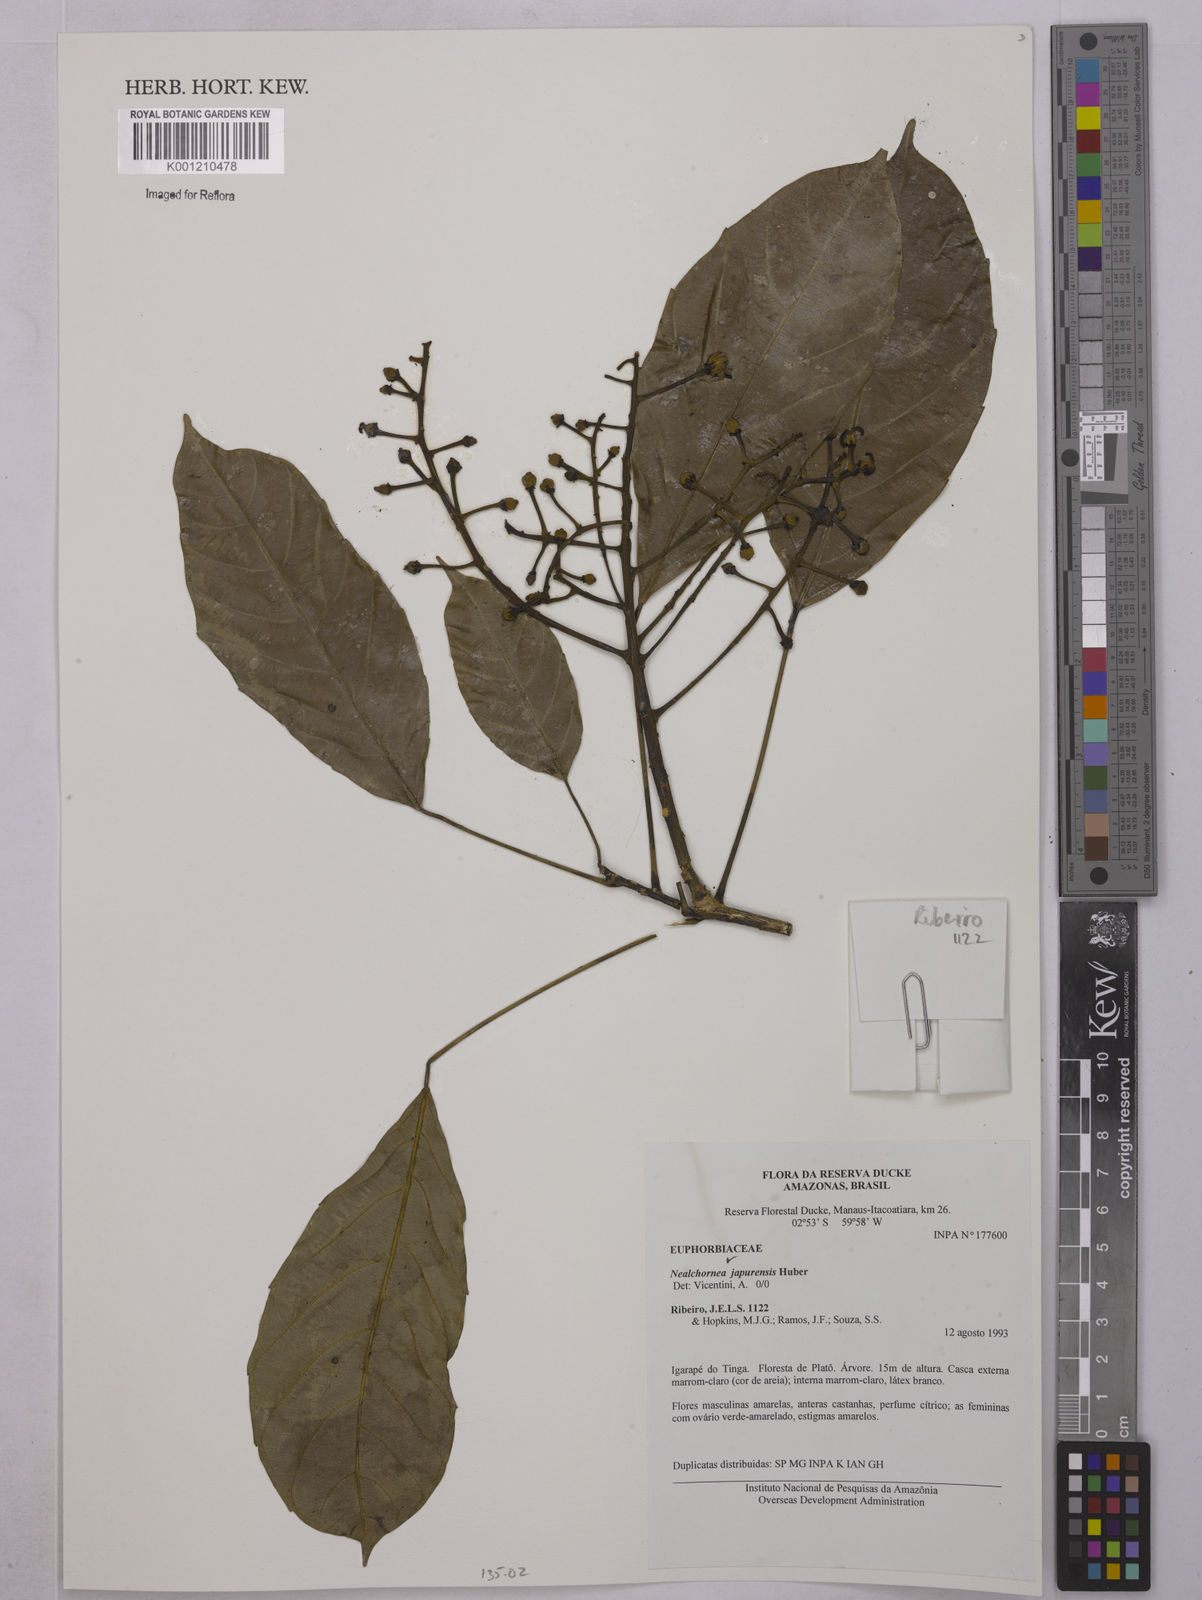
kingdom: Plantae
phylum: Tracheophyta
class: Magnoliopsida
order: Malpighiales
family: Euphorbiaceae
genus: Nealchornea
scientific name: Nealchornea yapurensis
